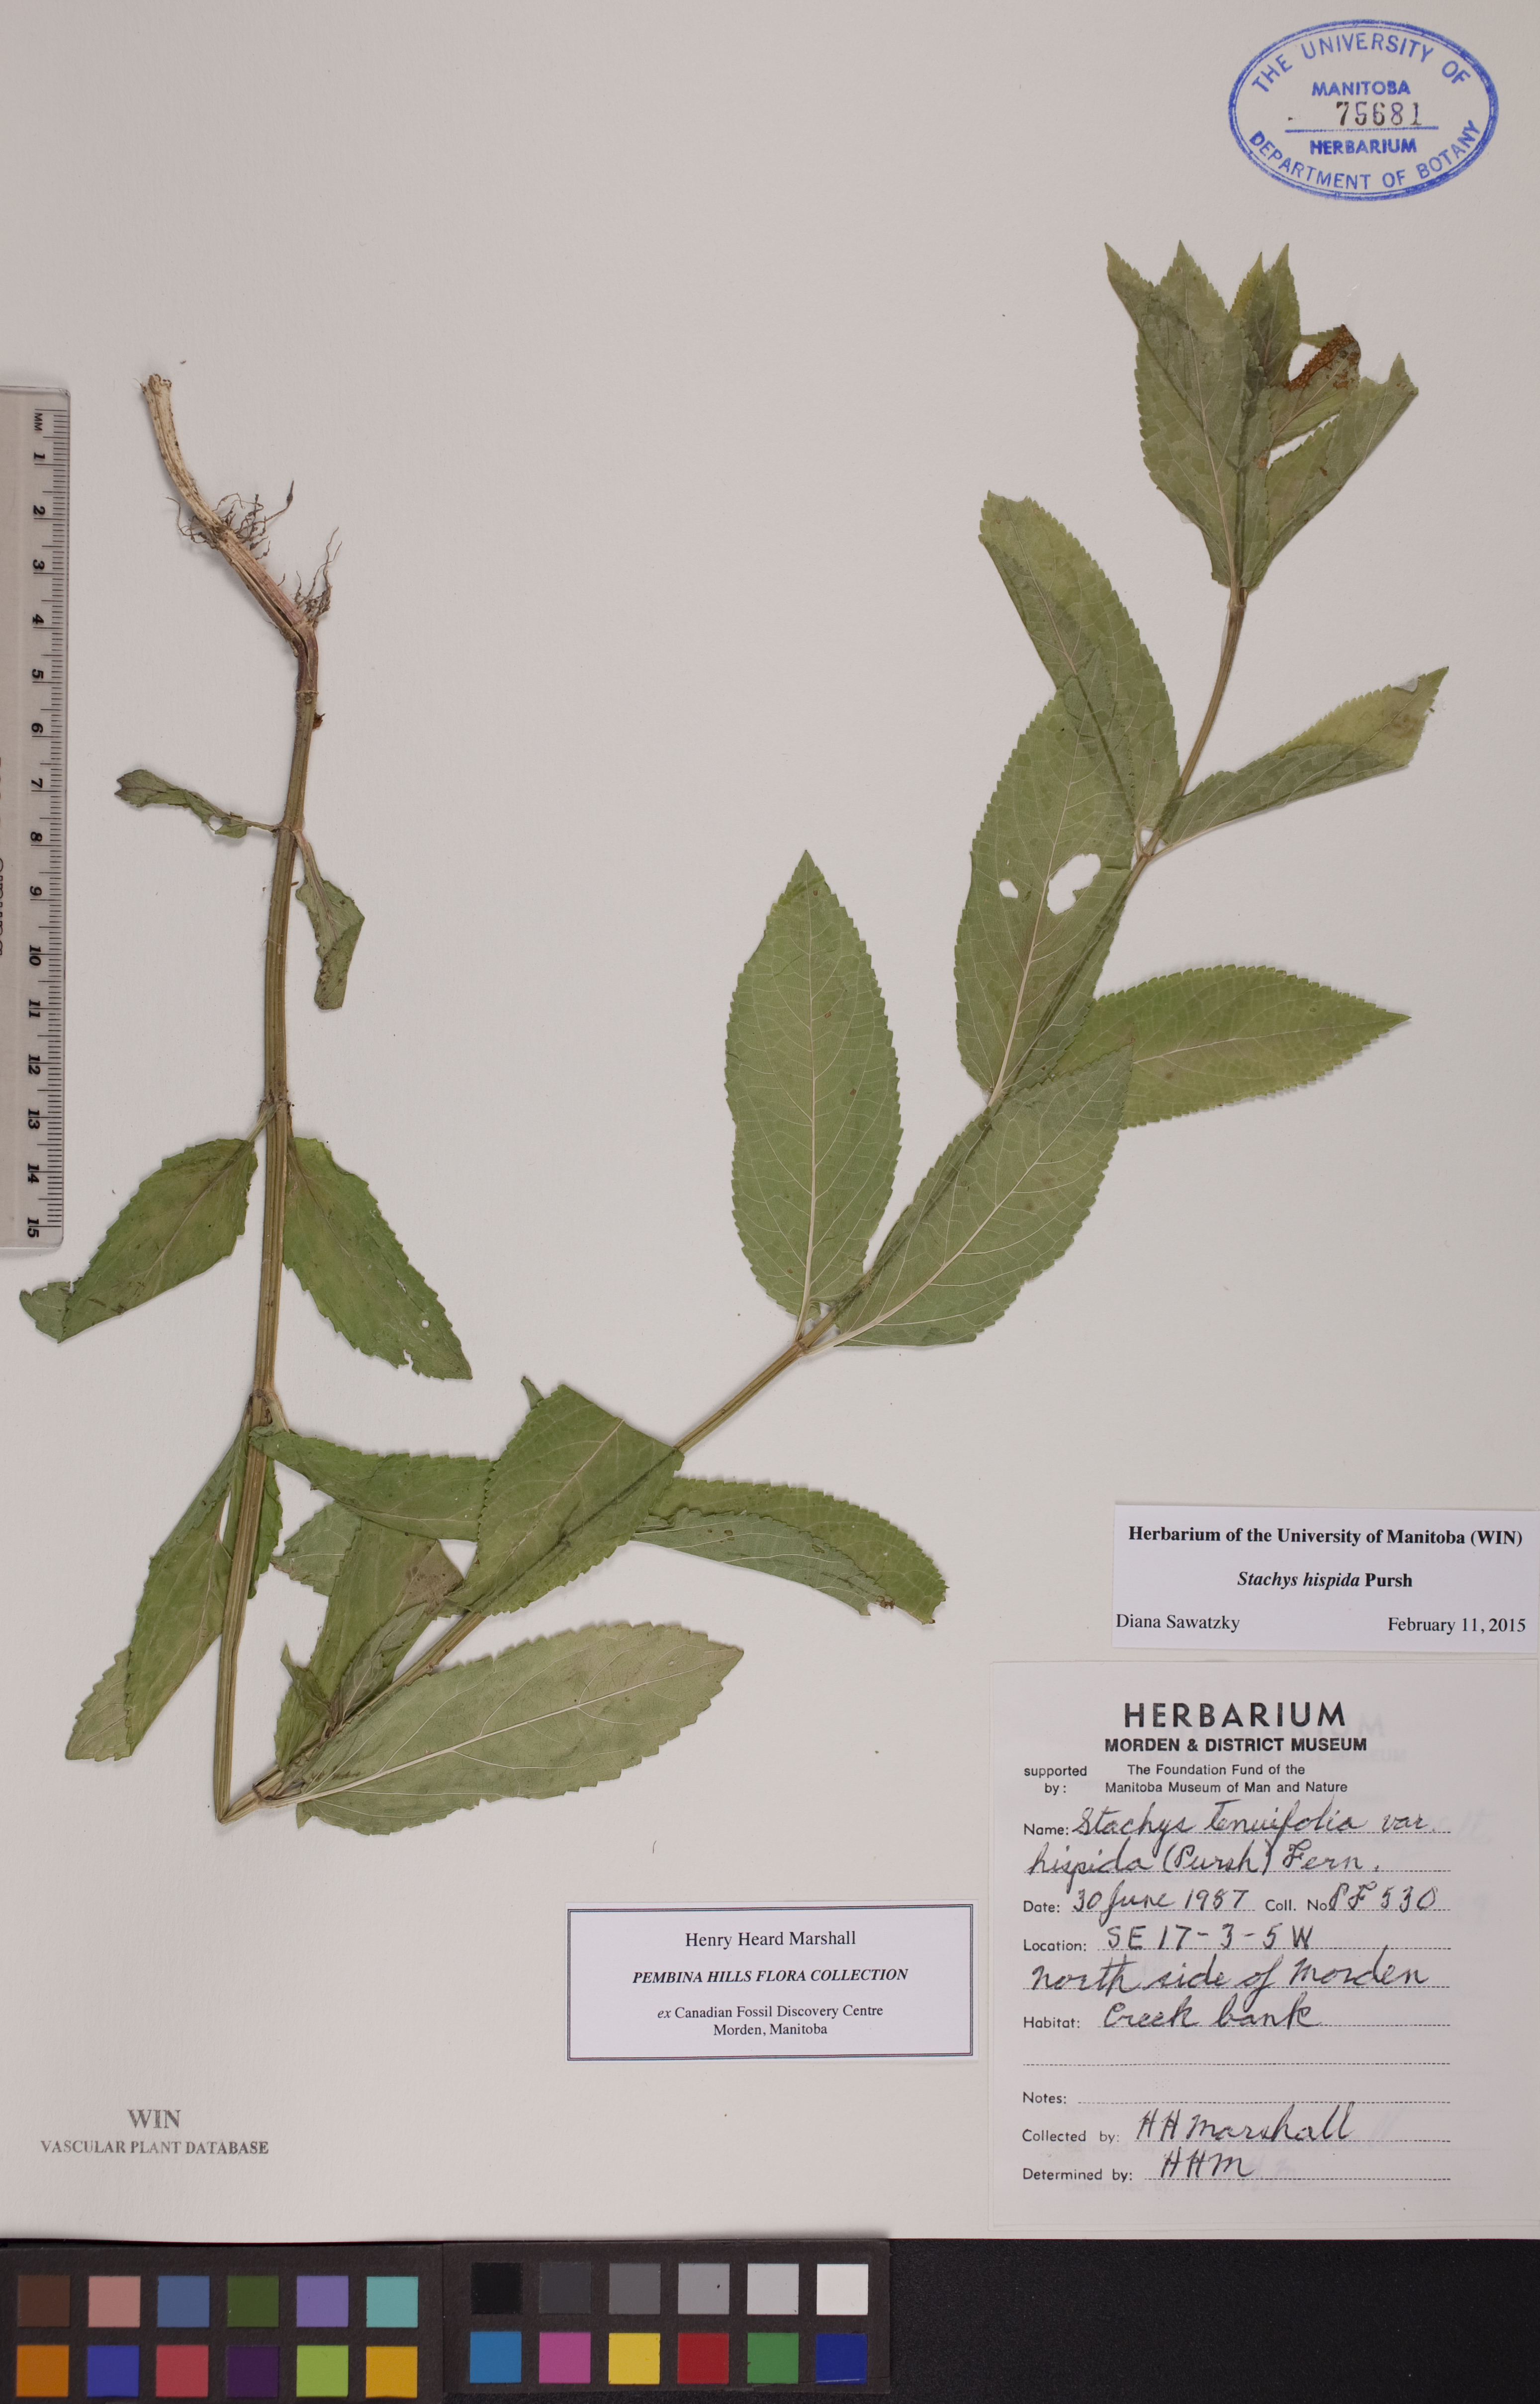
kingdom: Plantae
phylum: Tracheophyta
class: Magnoliopsida
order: Lamiales
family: Lamiaceae
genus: Stachys
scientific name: Stachys hispida
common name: Hispid hedge-nettle
